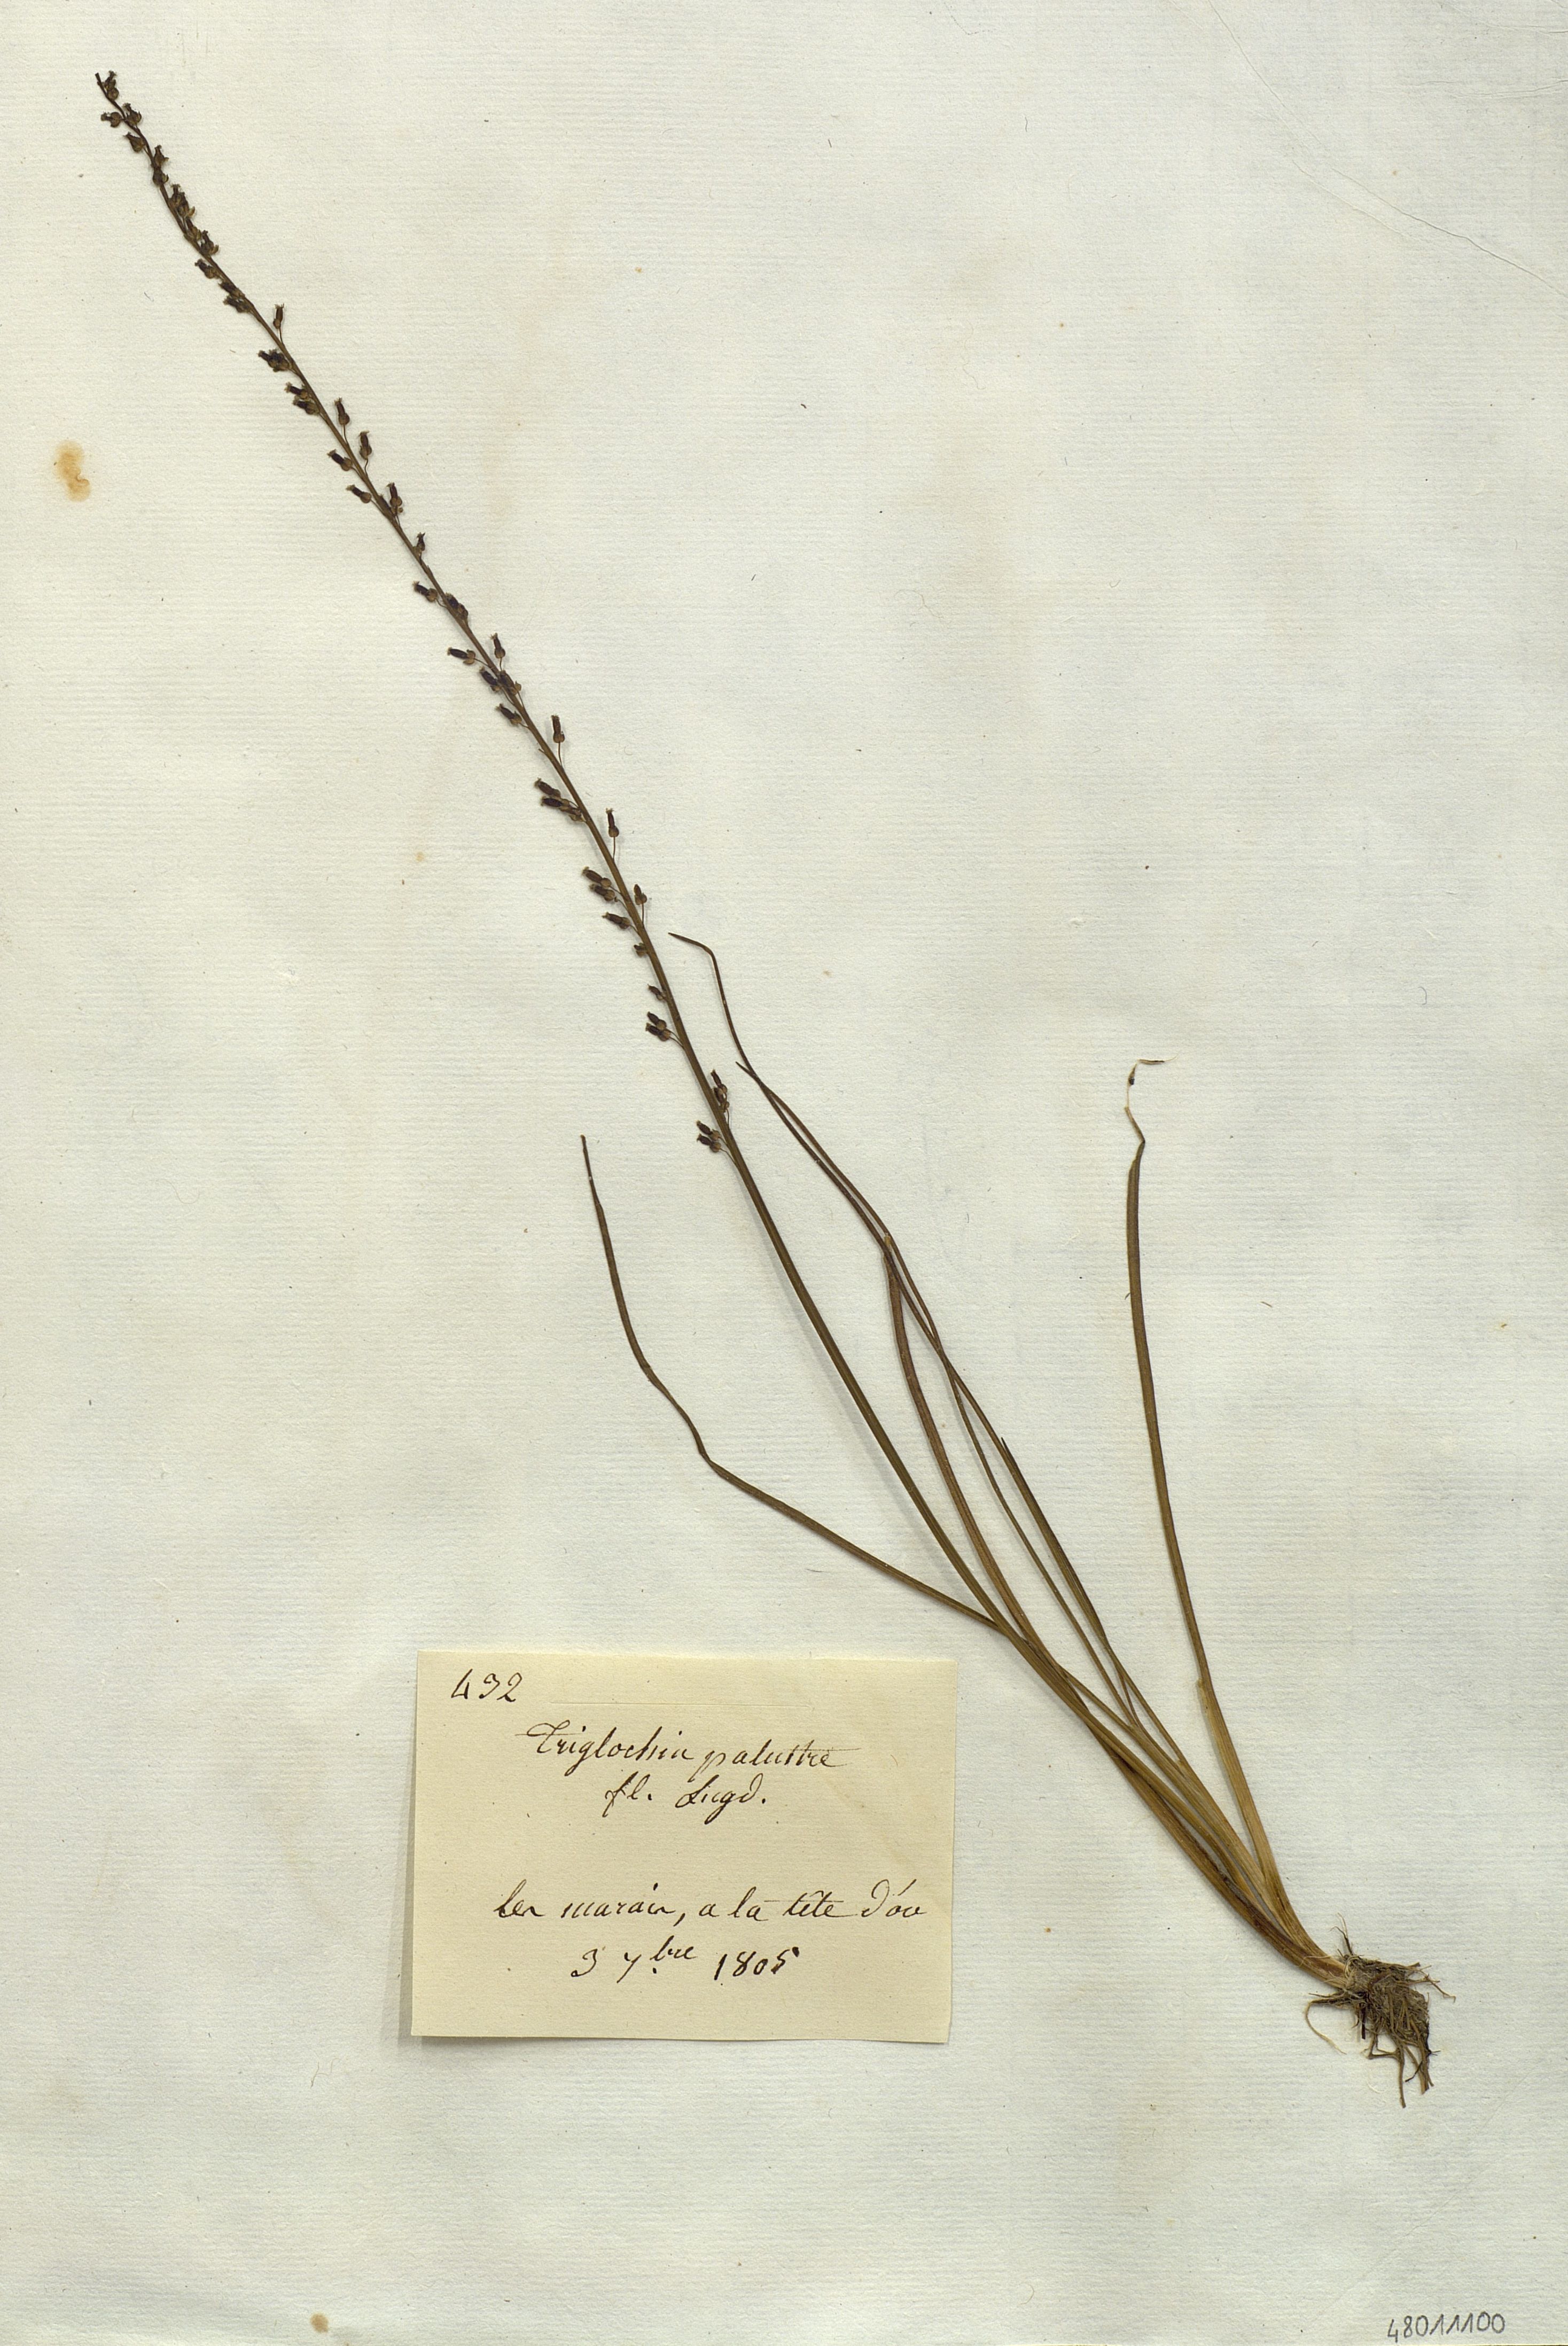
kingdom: Plantae
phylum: Tracheophyta
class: Liliopsida
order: Alismatales
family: Juncaginaceae
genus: Triglochin
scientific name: Triglochin palustris
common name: Marsh arrowgrass
